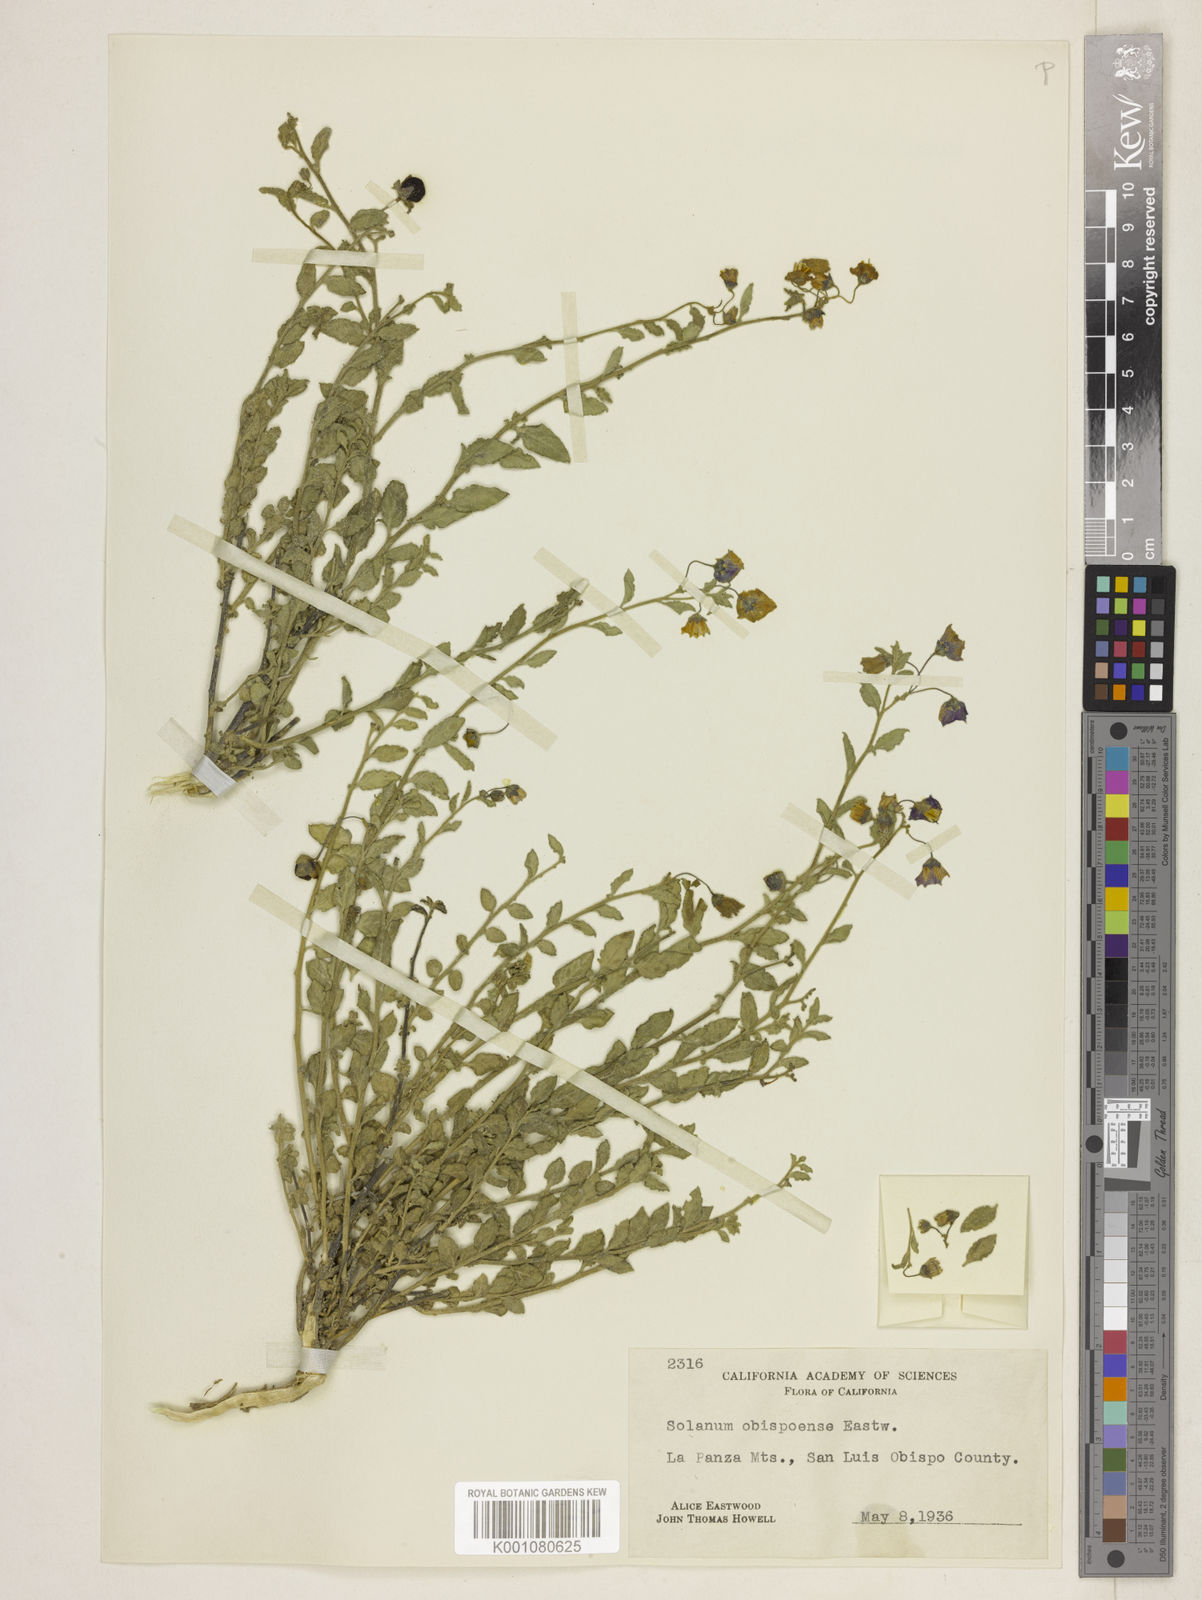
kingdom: Plantae
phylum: Tracheophyta
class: Magnoliopsida
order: Solanales
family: Solanaceae
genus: Solanum
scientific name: Solanum umbelliferum
